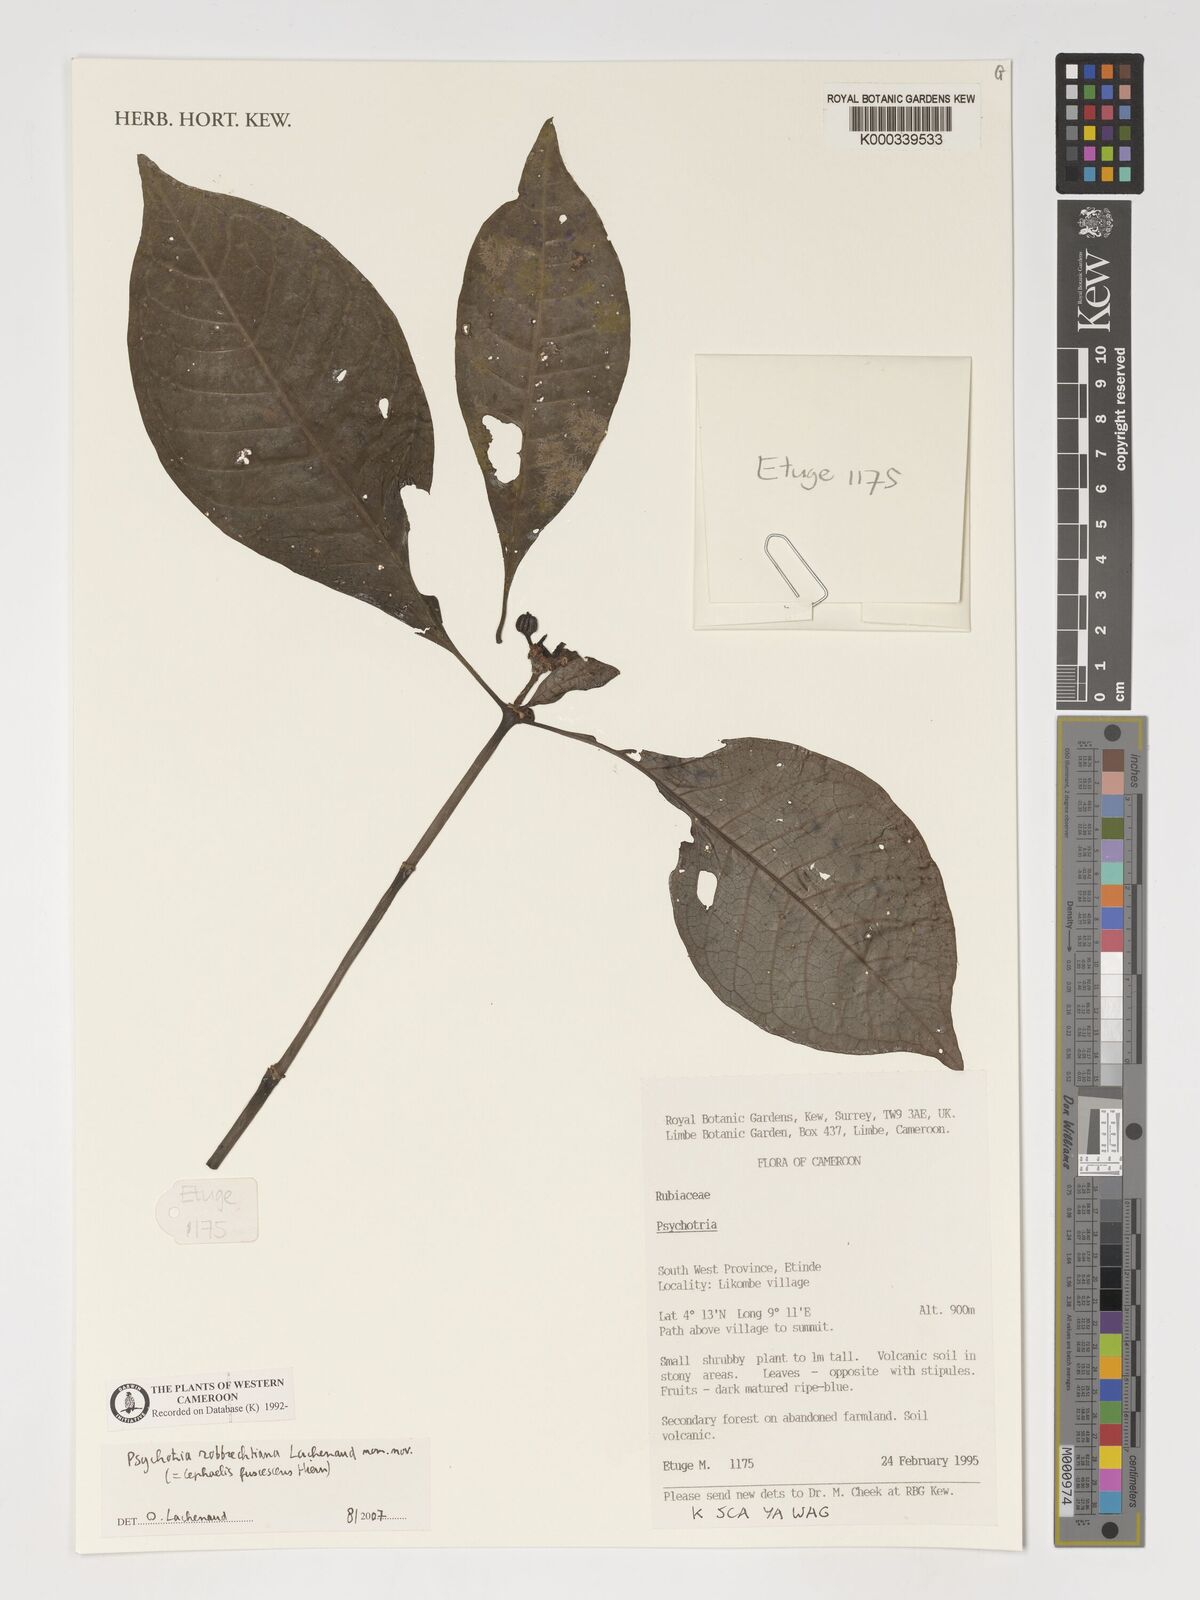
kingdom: Plantae
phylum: Tracheophyta
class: Magnoliopsida
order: Gentianales
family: Rubiaceae
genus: Psychotria
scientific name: Psychotria
